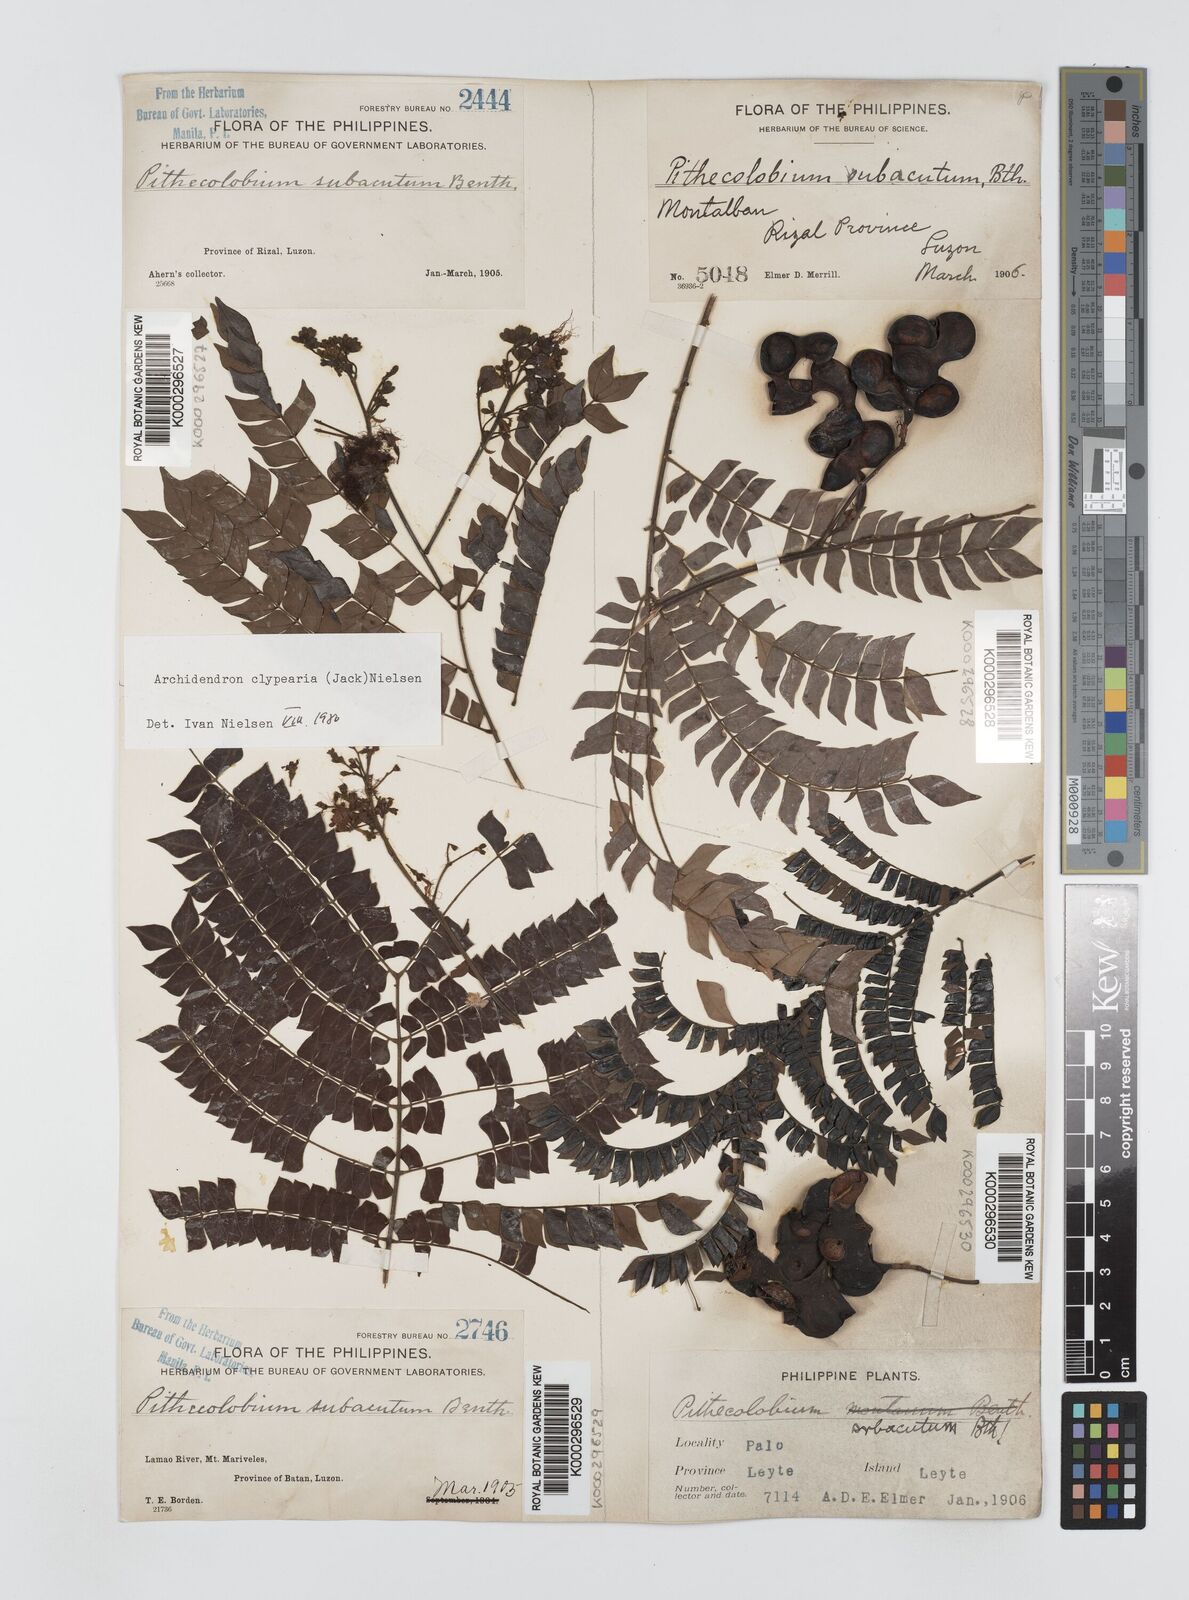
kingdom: Plantae
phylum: Tracheophyta
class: Magnoliopsida
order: Fabales
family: Fabaceae
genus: Archidendron
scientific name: Archidendron clypearia
